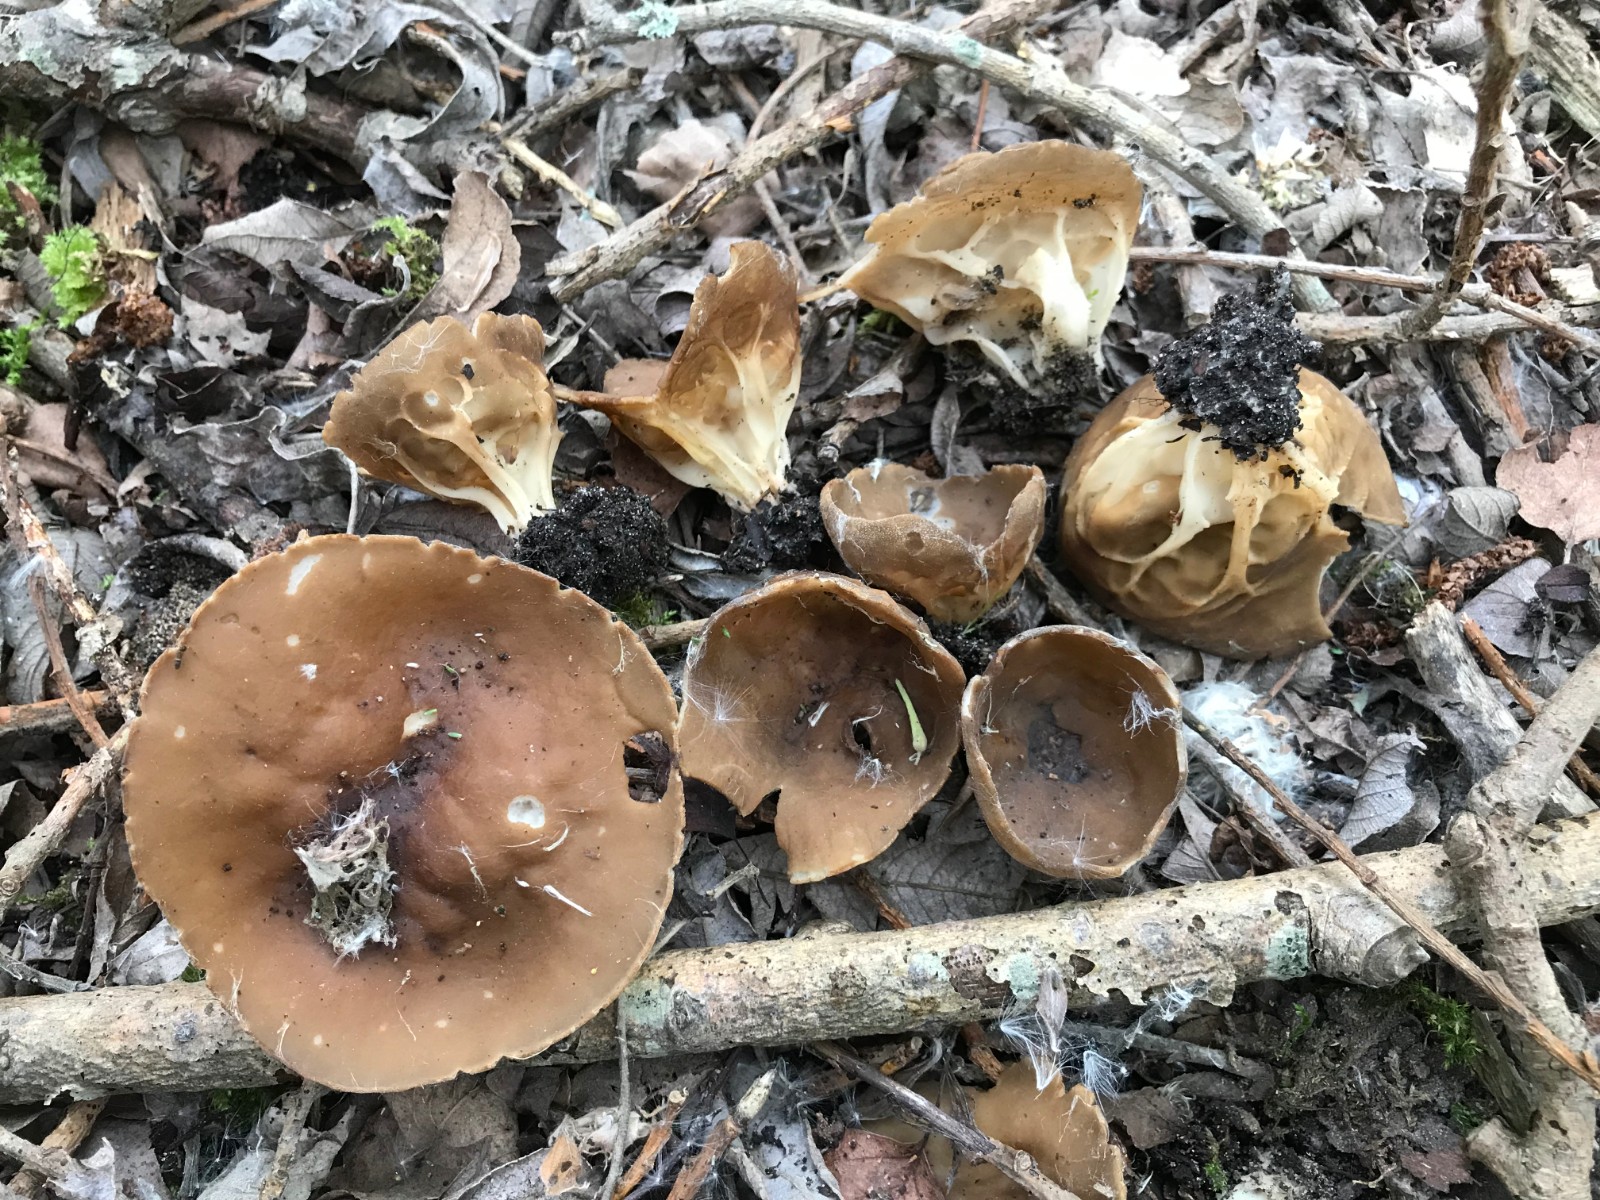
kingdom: Fungi
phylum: Ascomycota
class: Pezizomycetes
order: Pezizales
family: Helvellaceae
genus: Helvella
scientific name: Helvella acetabulum
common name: pokal-foldhat
